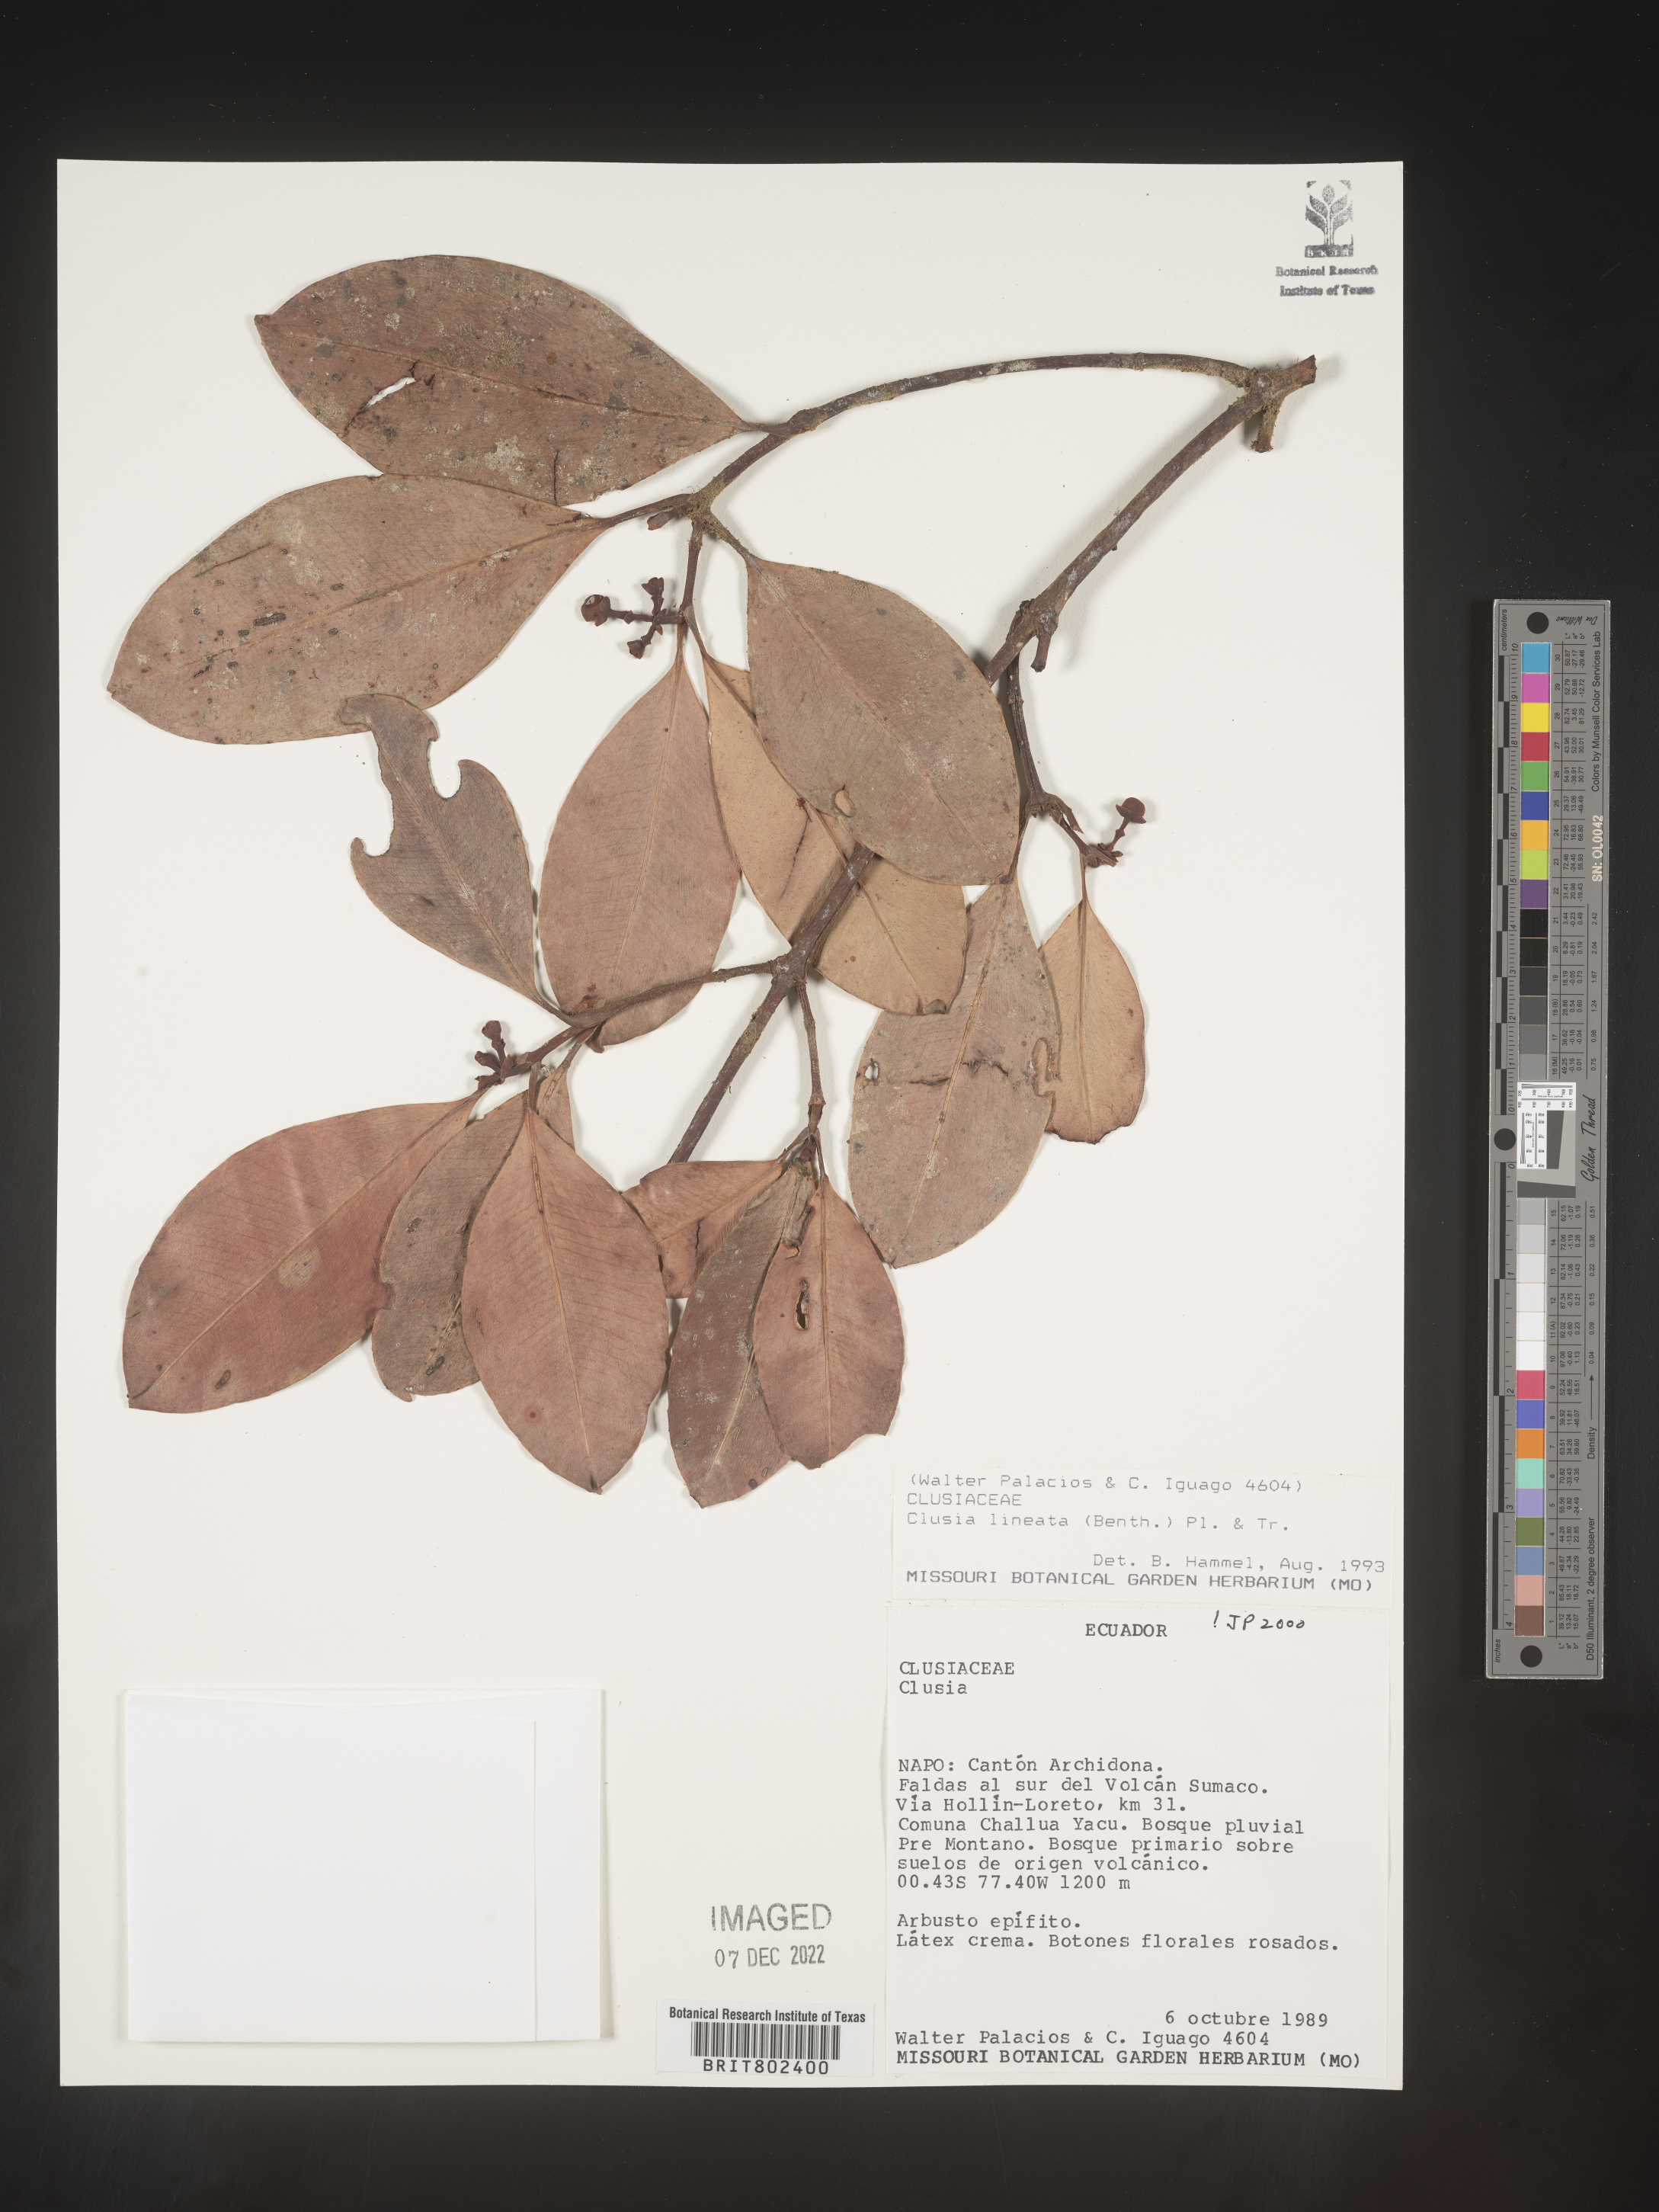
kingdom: Plantae
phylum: Tracheophyta
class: Magnoliopsida
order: Malpighiales
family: Clusiaceae
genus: Clusia
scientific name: Clusia lineata
